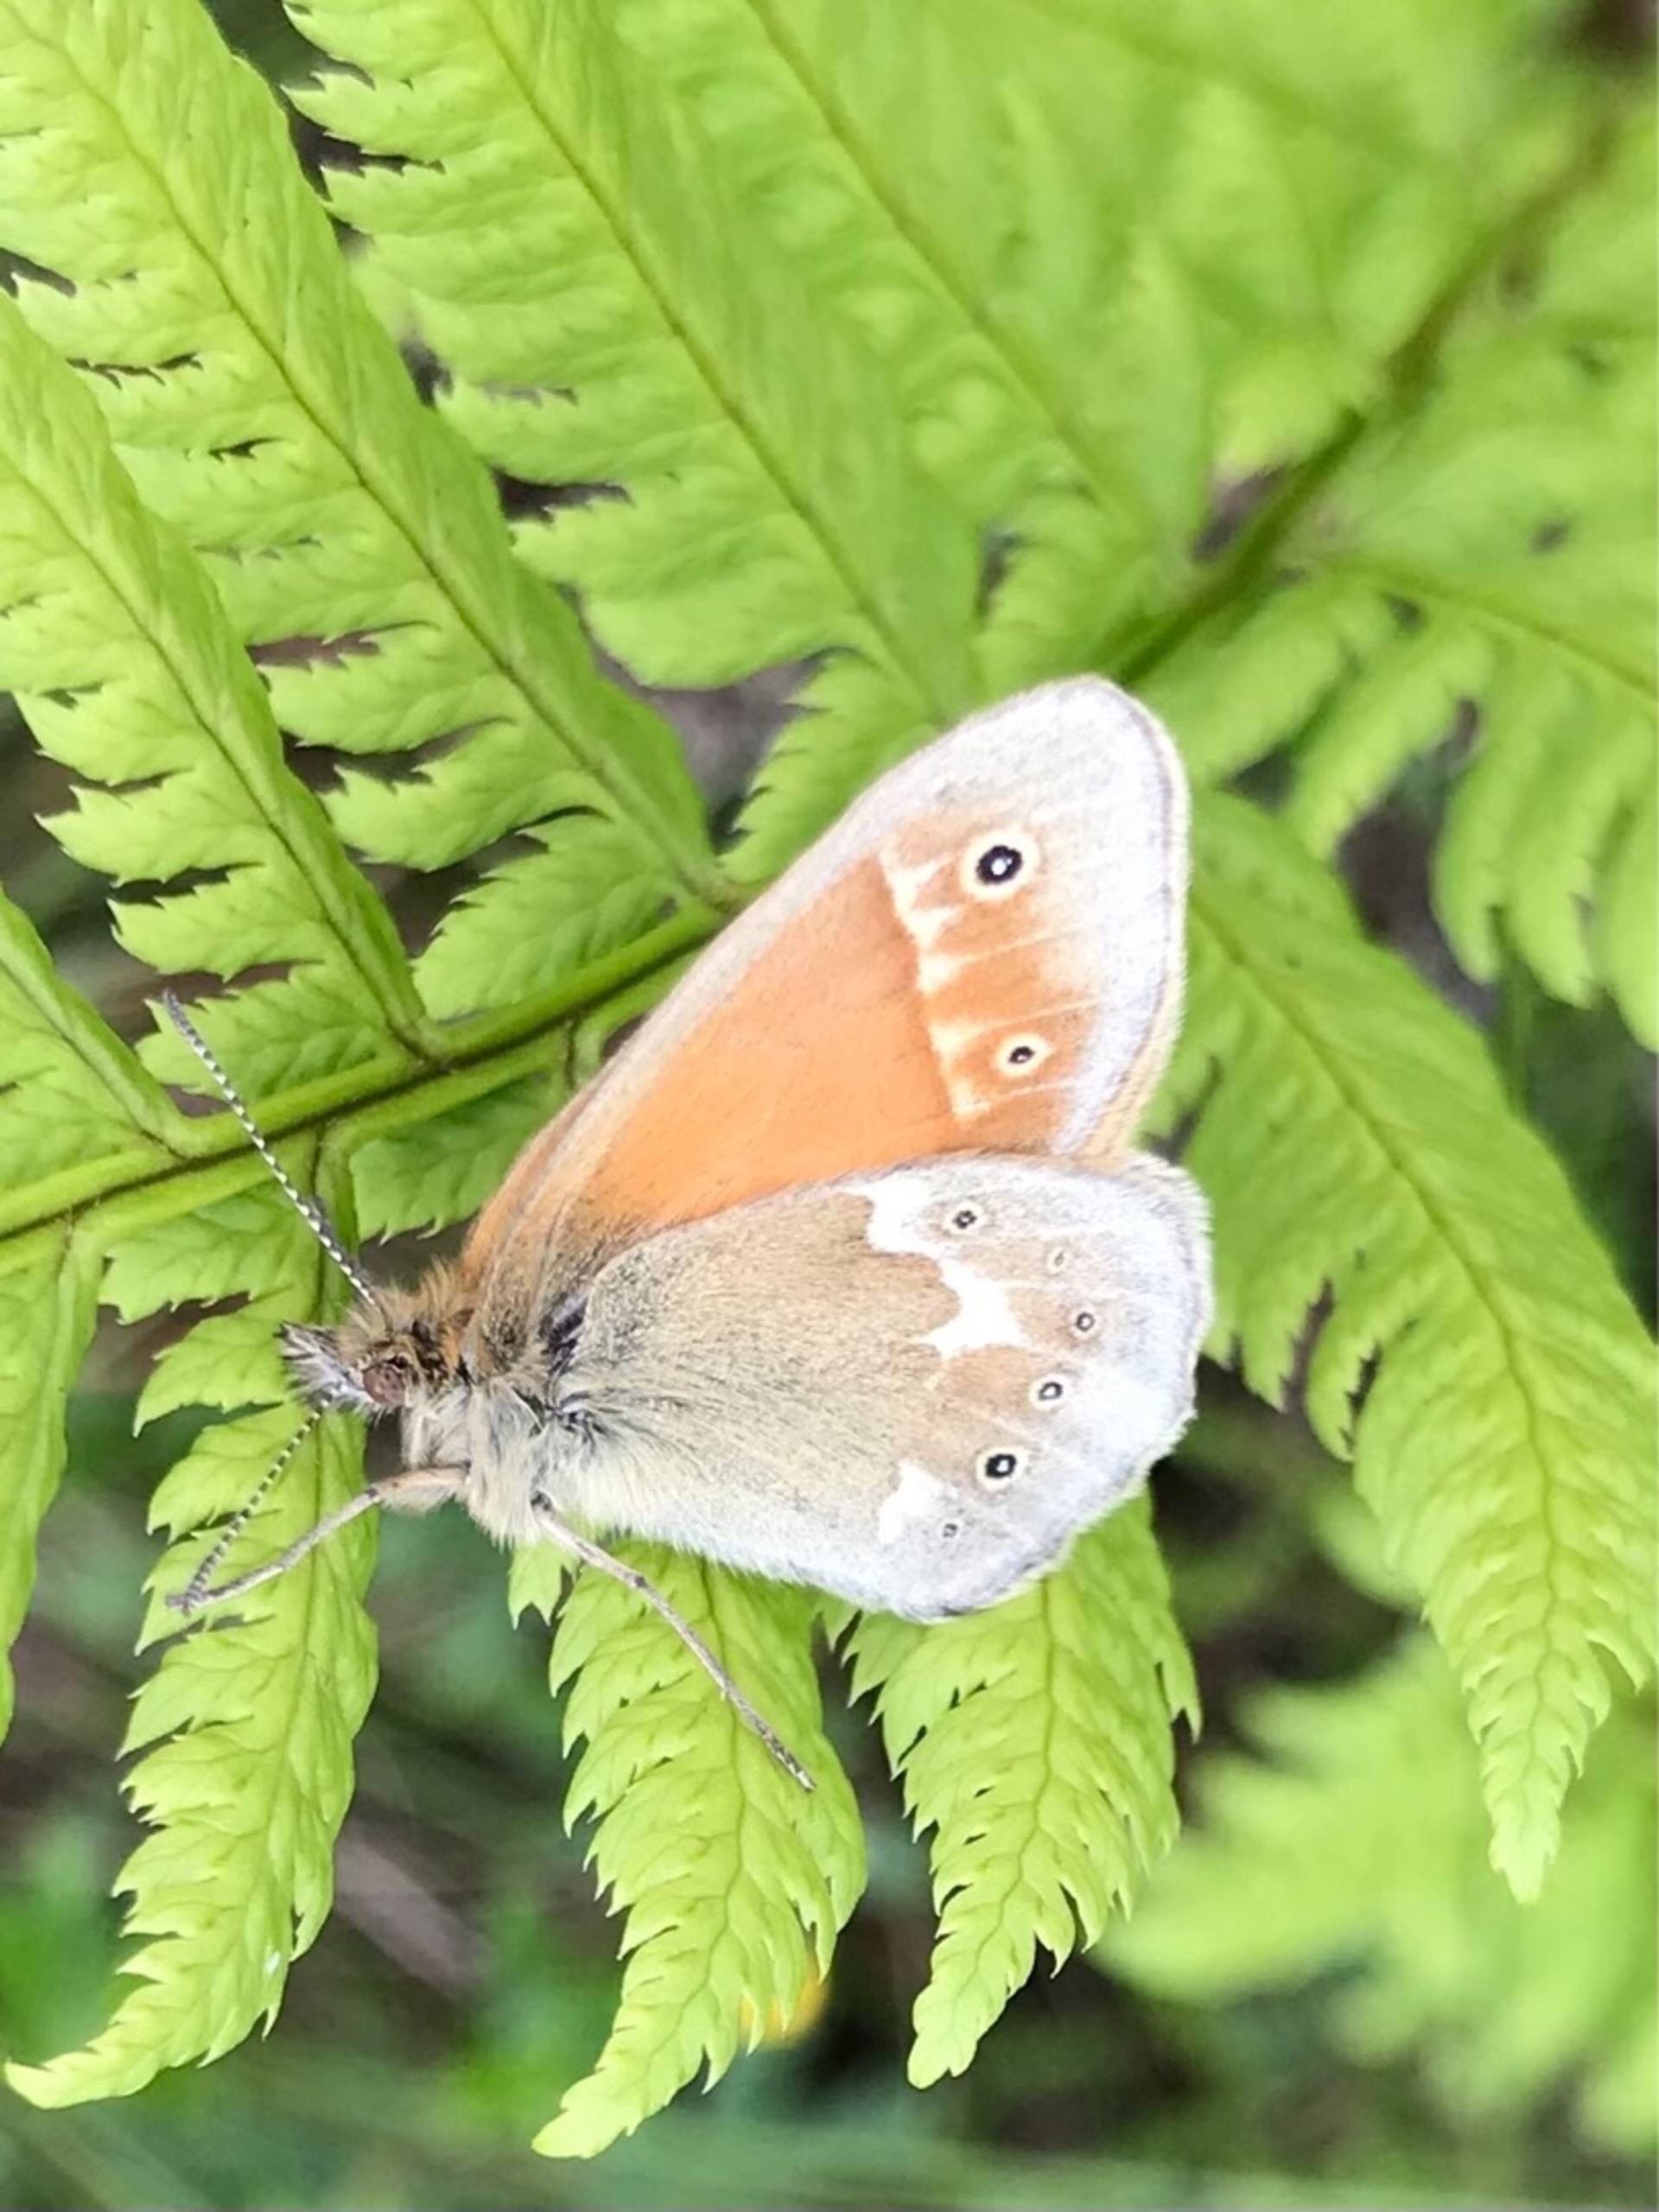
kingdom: Animalia
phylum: Arthropoda
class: Insecta
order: Lepidoptera
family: Nymphalidae
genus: Coenonympha
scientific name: Coenonympha tullia
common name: Moserandøje
